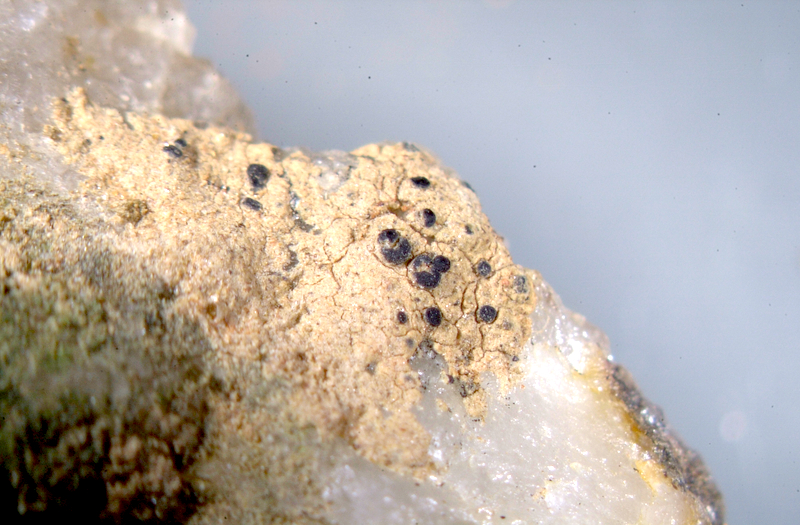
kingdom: Fungi
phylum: Ascomycota
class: Lecanoromycetes
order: Ostropales
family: Graphidaceae
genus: Diploschistes
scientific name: Diploschistes hensseniae
